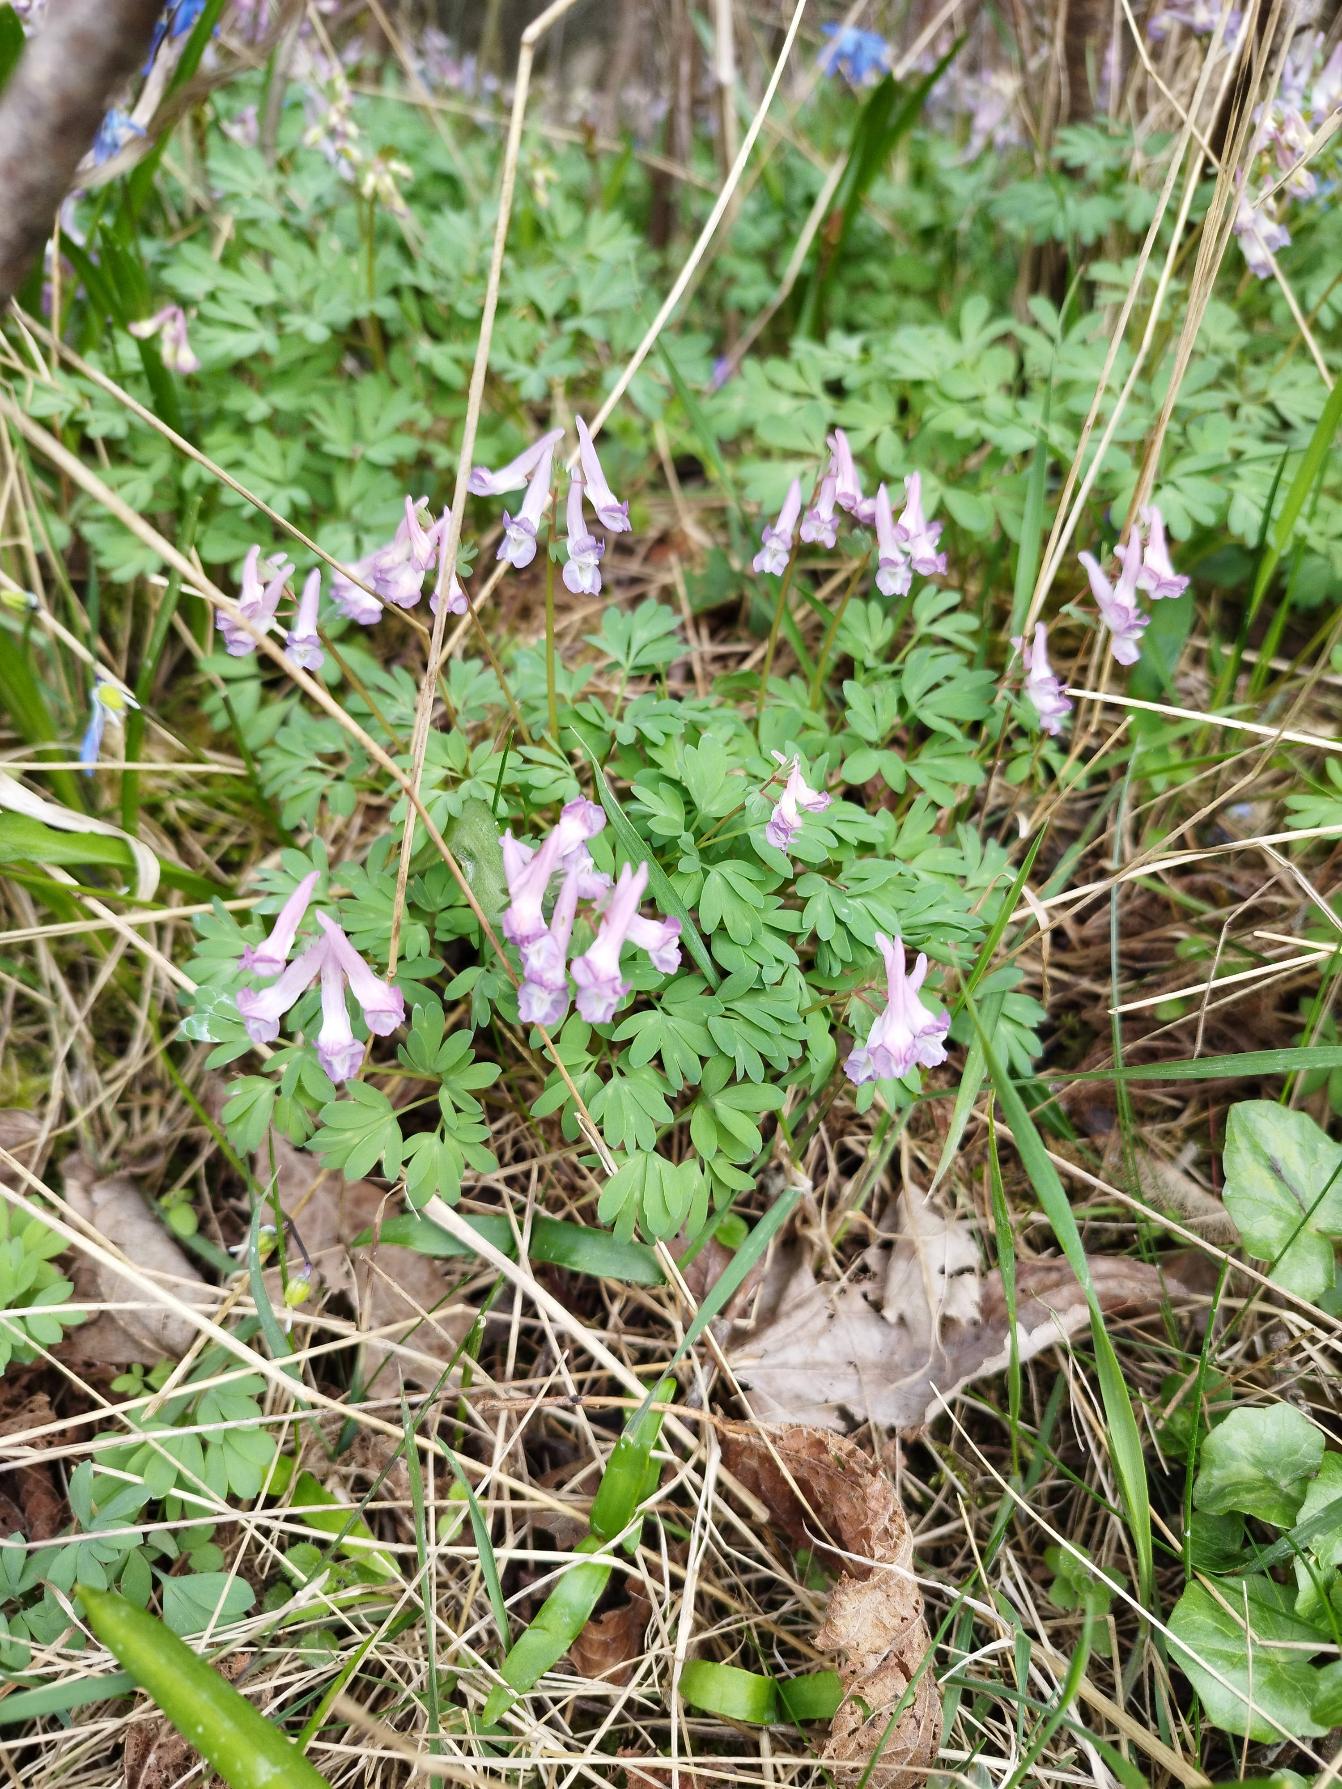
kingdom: Plantae
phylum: Tracheophyta
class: Magnoliopsida
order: Ranunculales
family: Papaveraceae
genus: Corydalis
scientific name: Corydalis solida
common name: Langstilket lærkespore
